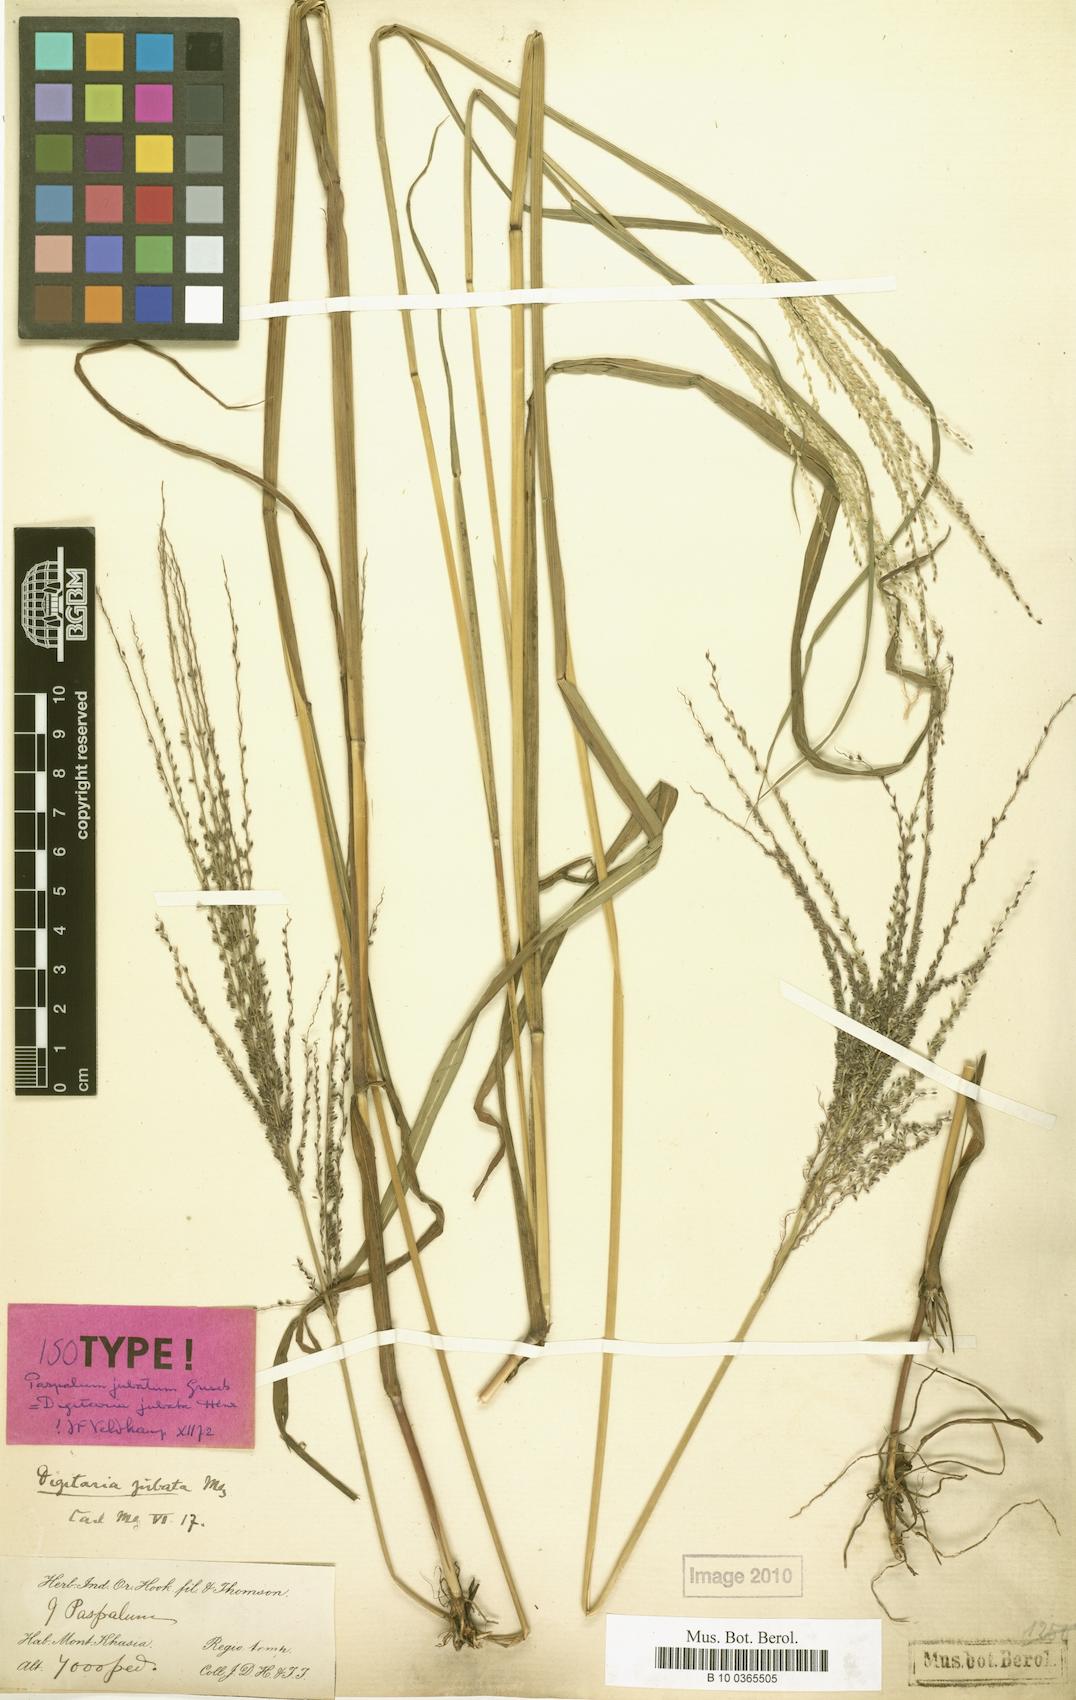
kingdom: Plantae
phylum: Tracheophyta
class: Liliopsida
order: Poales
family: Poaceae
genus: Digitaria
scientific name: Digitaria jubata
